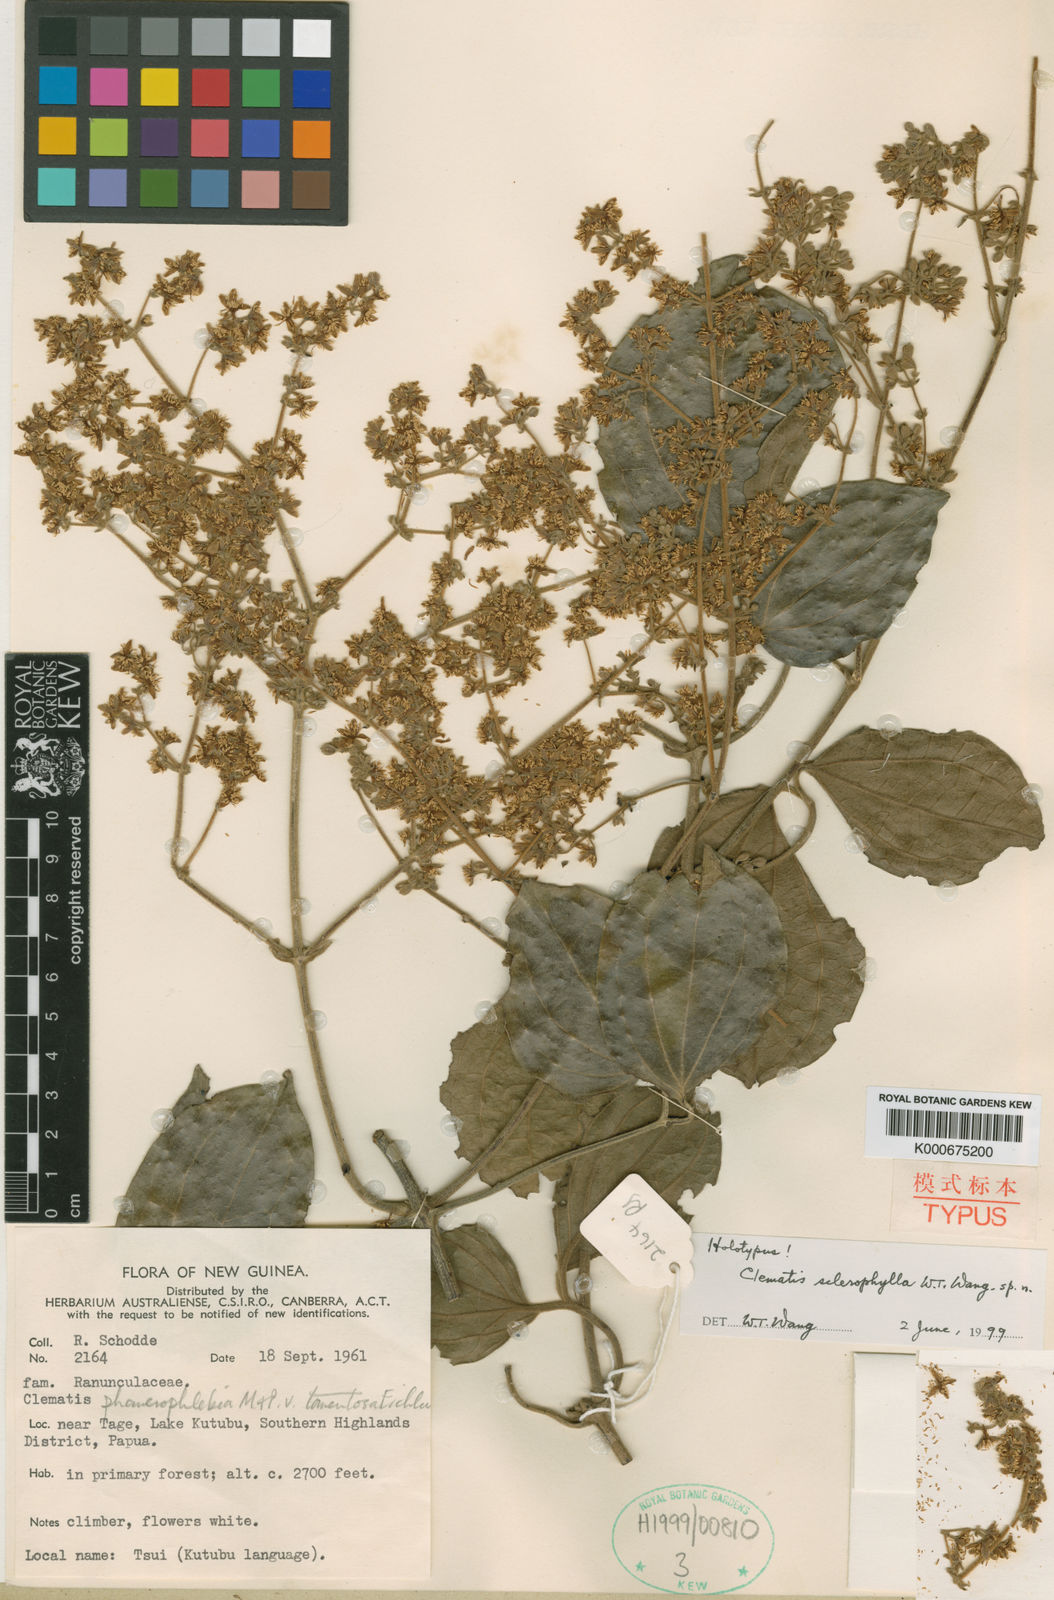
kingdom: Plantae
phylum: Tracheophyta
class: Magnoliopsida
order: Ranunculales
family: Ranunculaceae
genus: Clematis
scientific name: Clematis sclerophylla
